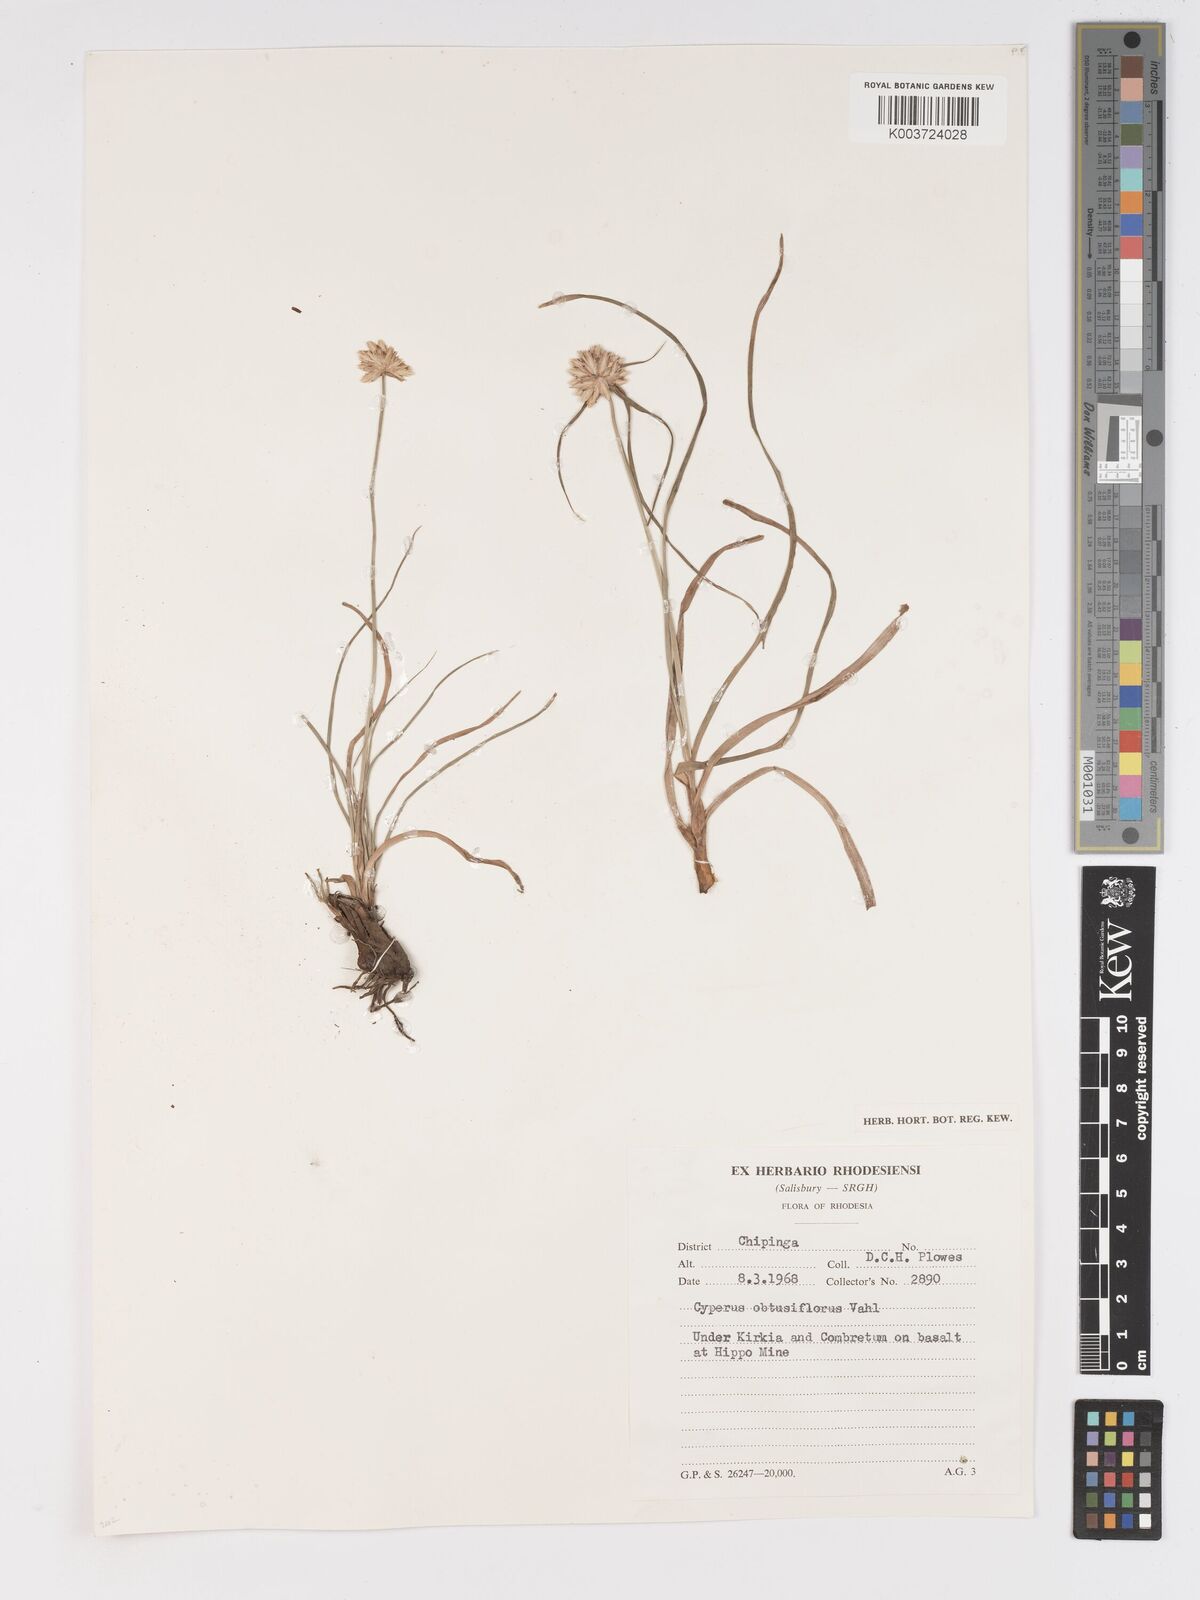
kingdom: Plantae
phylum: Tracheophyta
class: Liliopsida
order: Poales
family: Cyperaceae
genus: Cyperus
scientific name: Cyperus niveus
